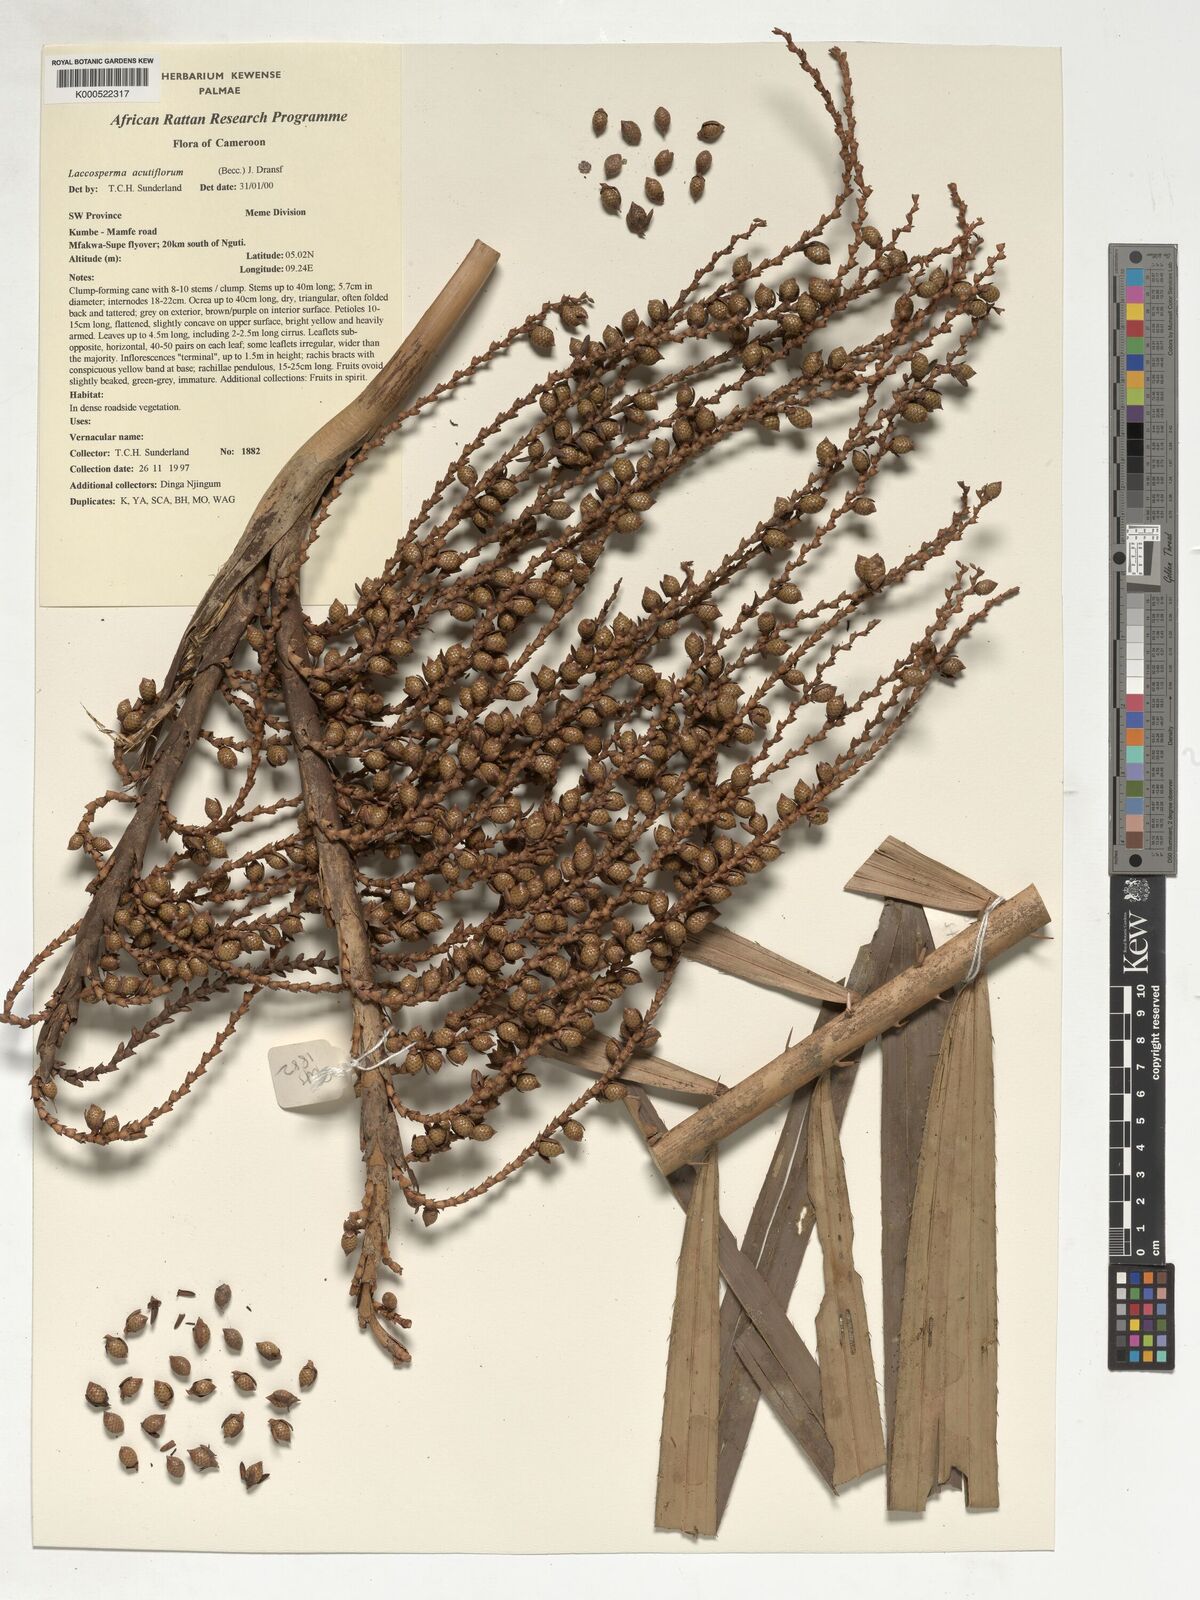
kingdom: Plantae
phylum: Tracheophyta
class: Liliopsida
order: Arecales
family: Arecaceae
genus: Laccosperma
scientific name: Laccosperma acutiflorum
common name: Rattan
